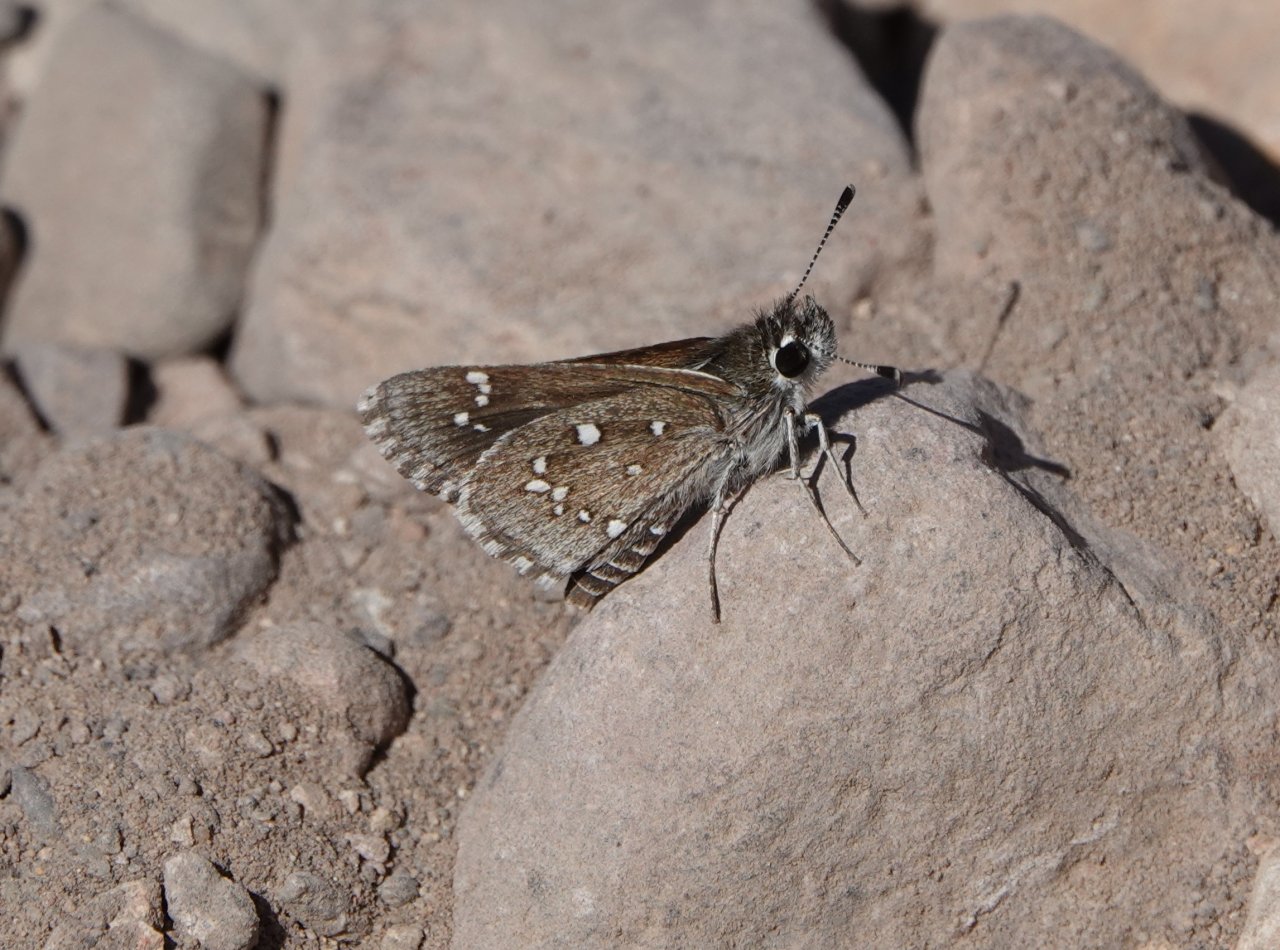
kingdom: Animalia
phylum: Arthropoda
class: Insecta
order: Lepidoptera
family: Hesperiidae
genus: Mastor
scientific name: Mastor eos
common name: Dotted Roadside-Skipper
